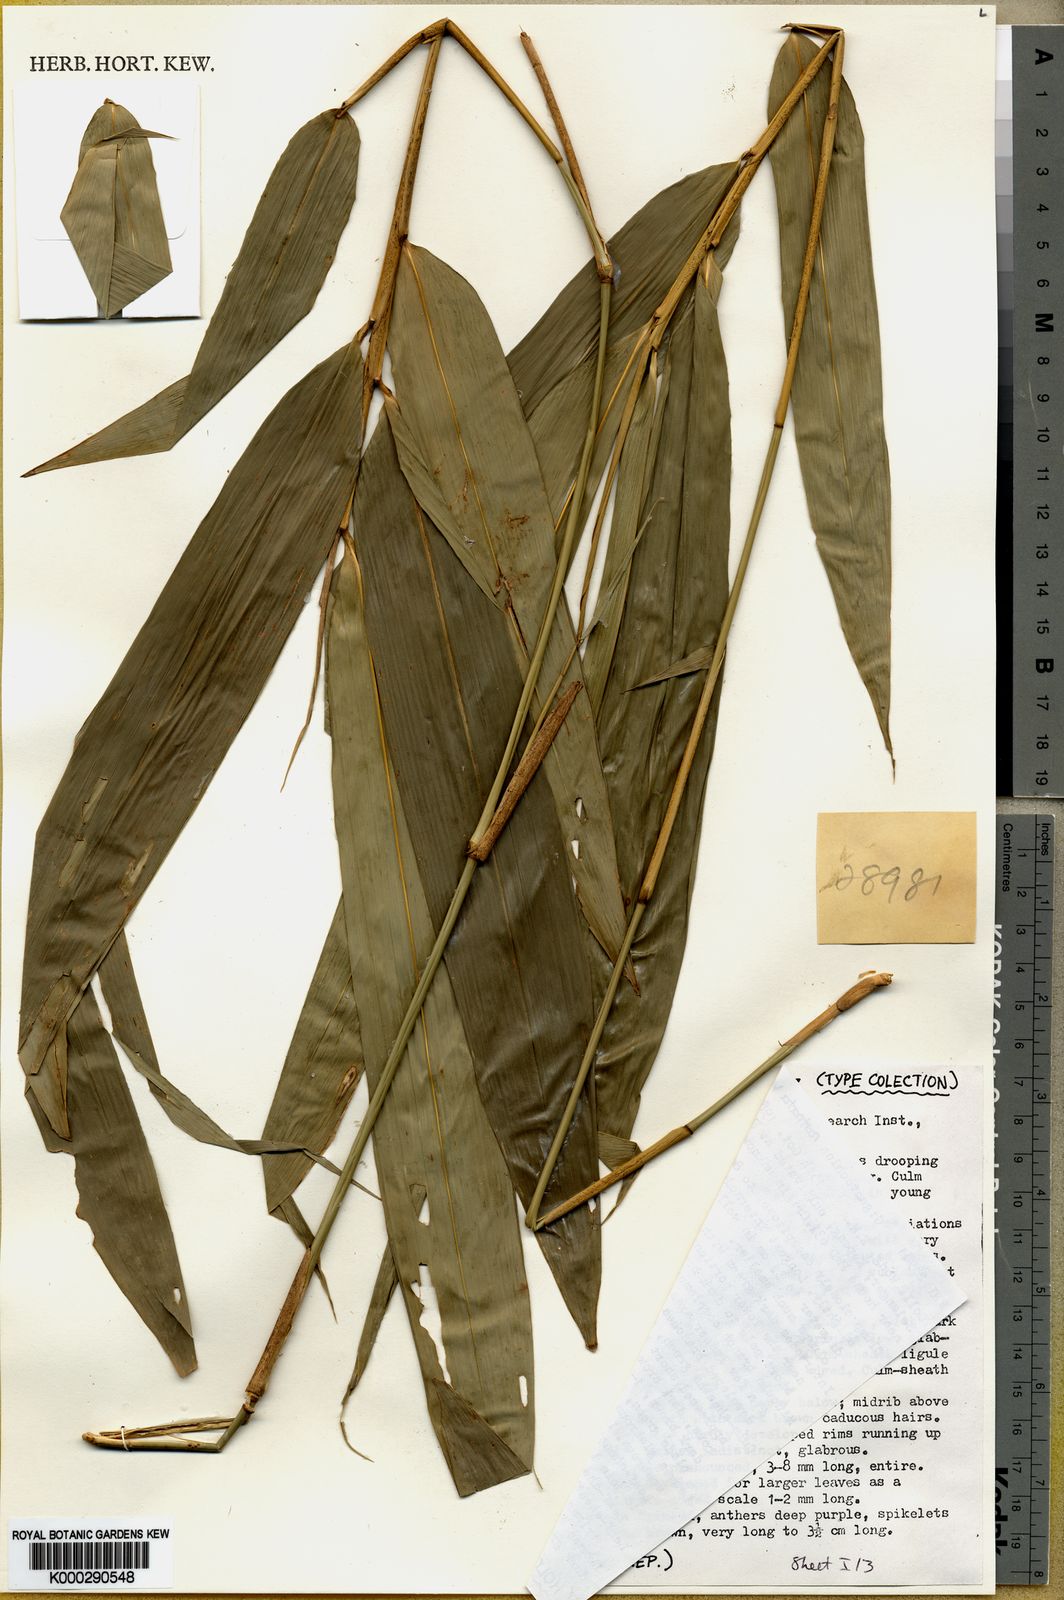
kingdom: Plantae
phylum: Tracheophyta
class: Liliopsida
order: Poales
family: Poaceae
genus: Gigantochloa
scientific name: Gigantochloa rostrata
